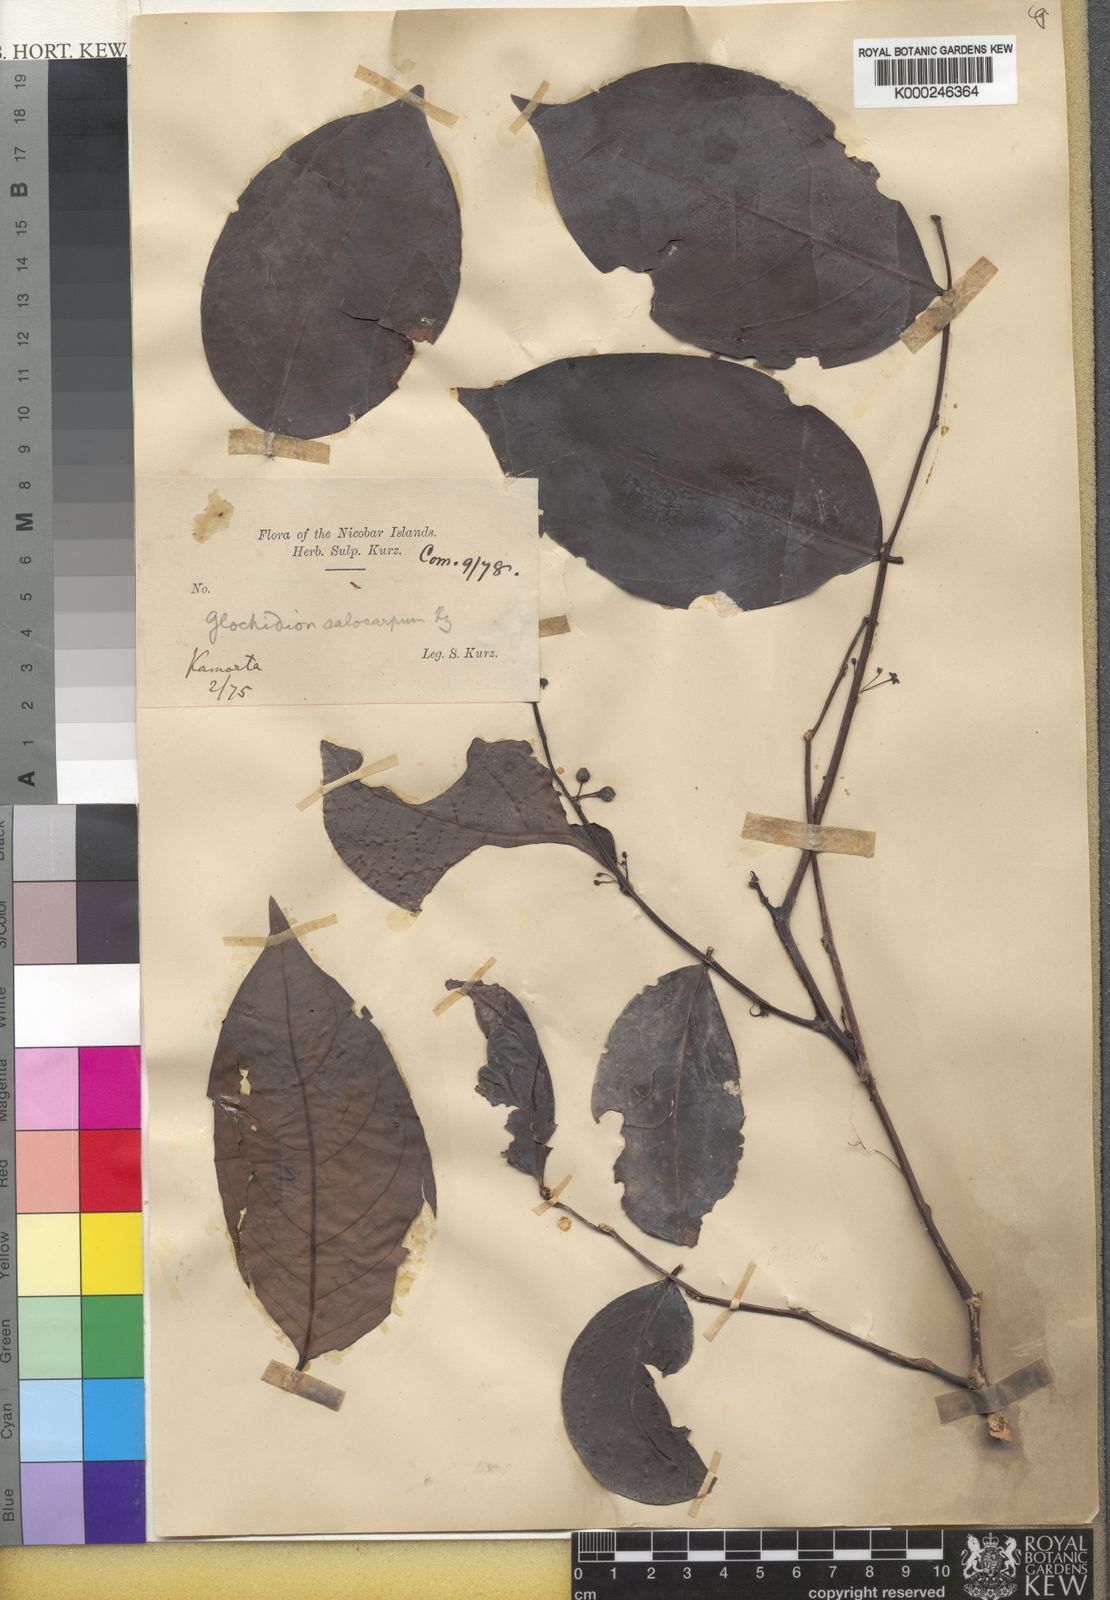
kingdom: Plantae
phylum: Tracheophyta
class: Magnoliopsida
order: Malpighiales
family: Phyllanthaceae
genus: Glochidion
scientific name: Glochidion calocarpum
